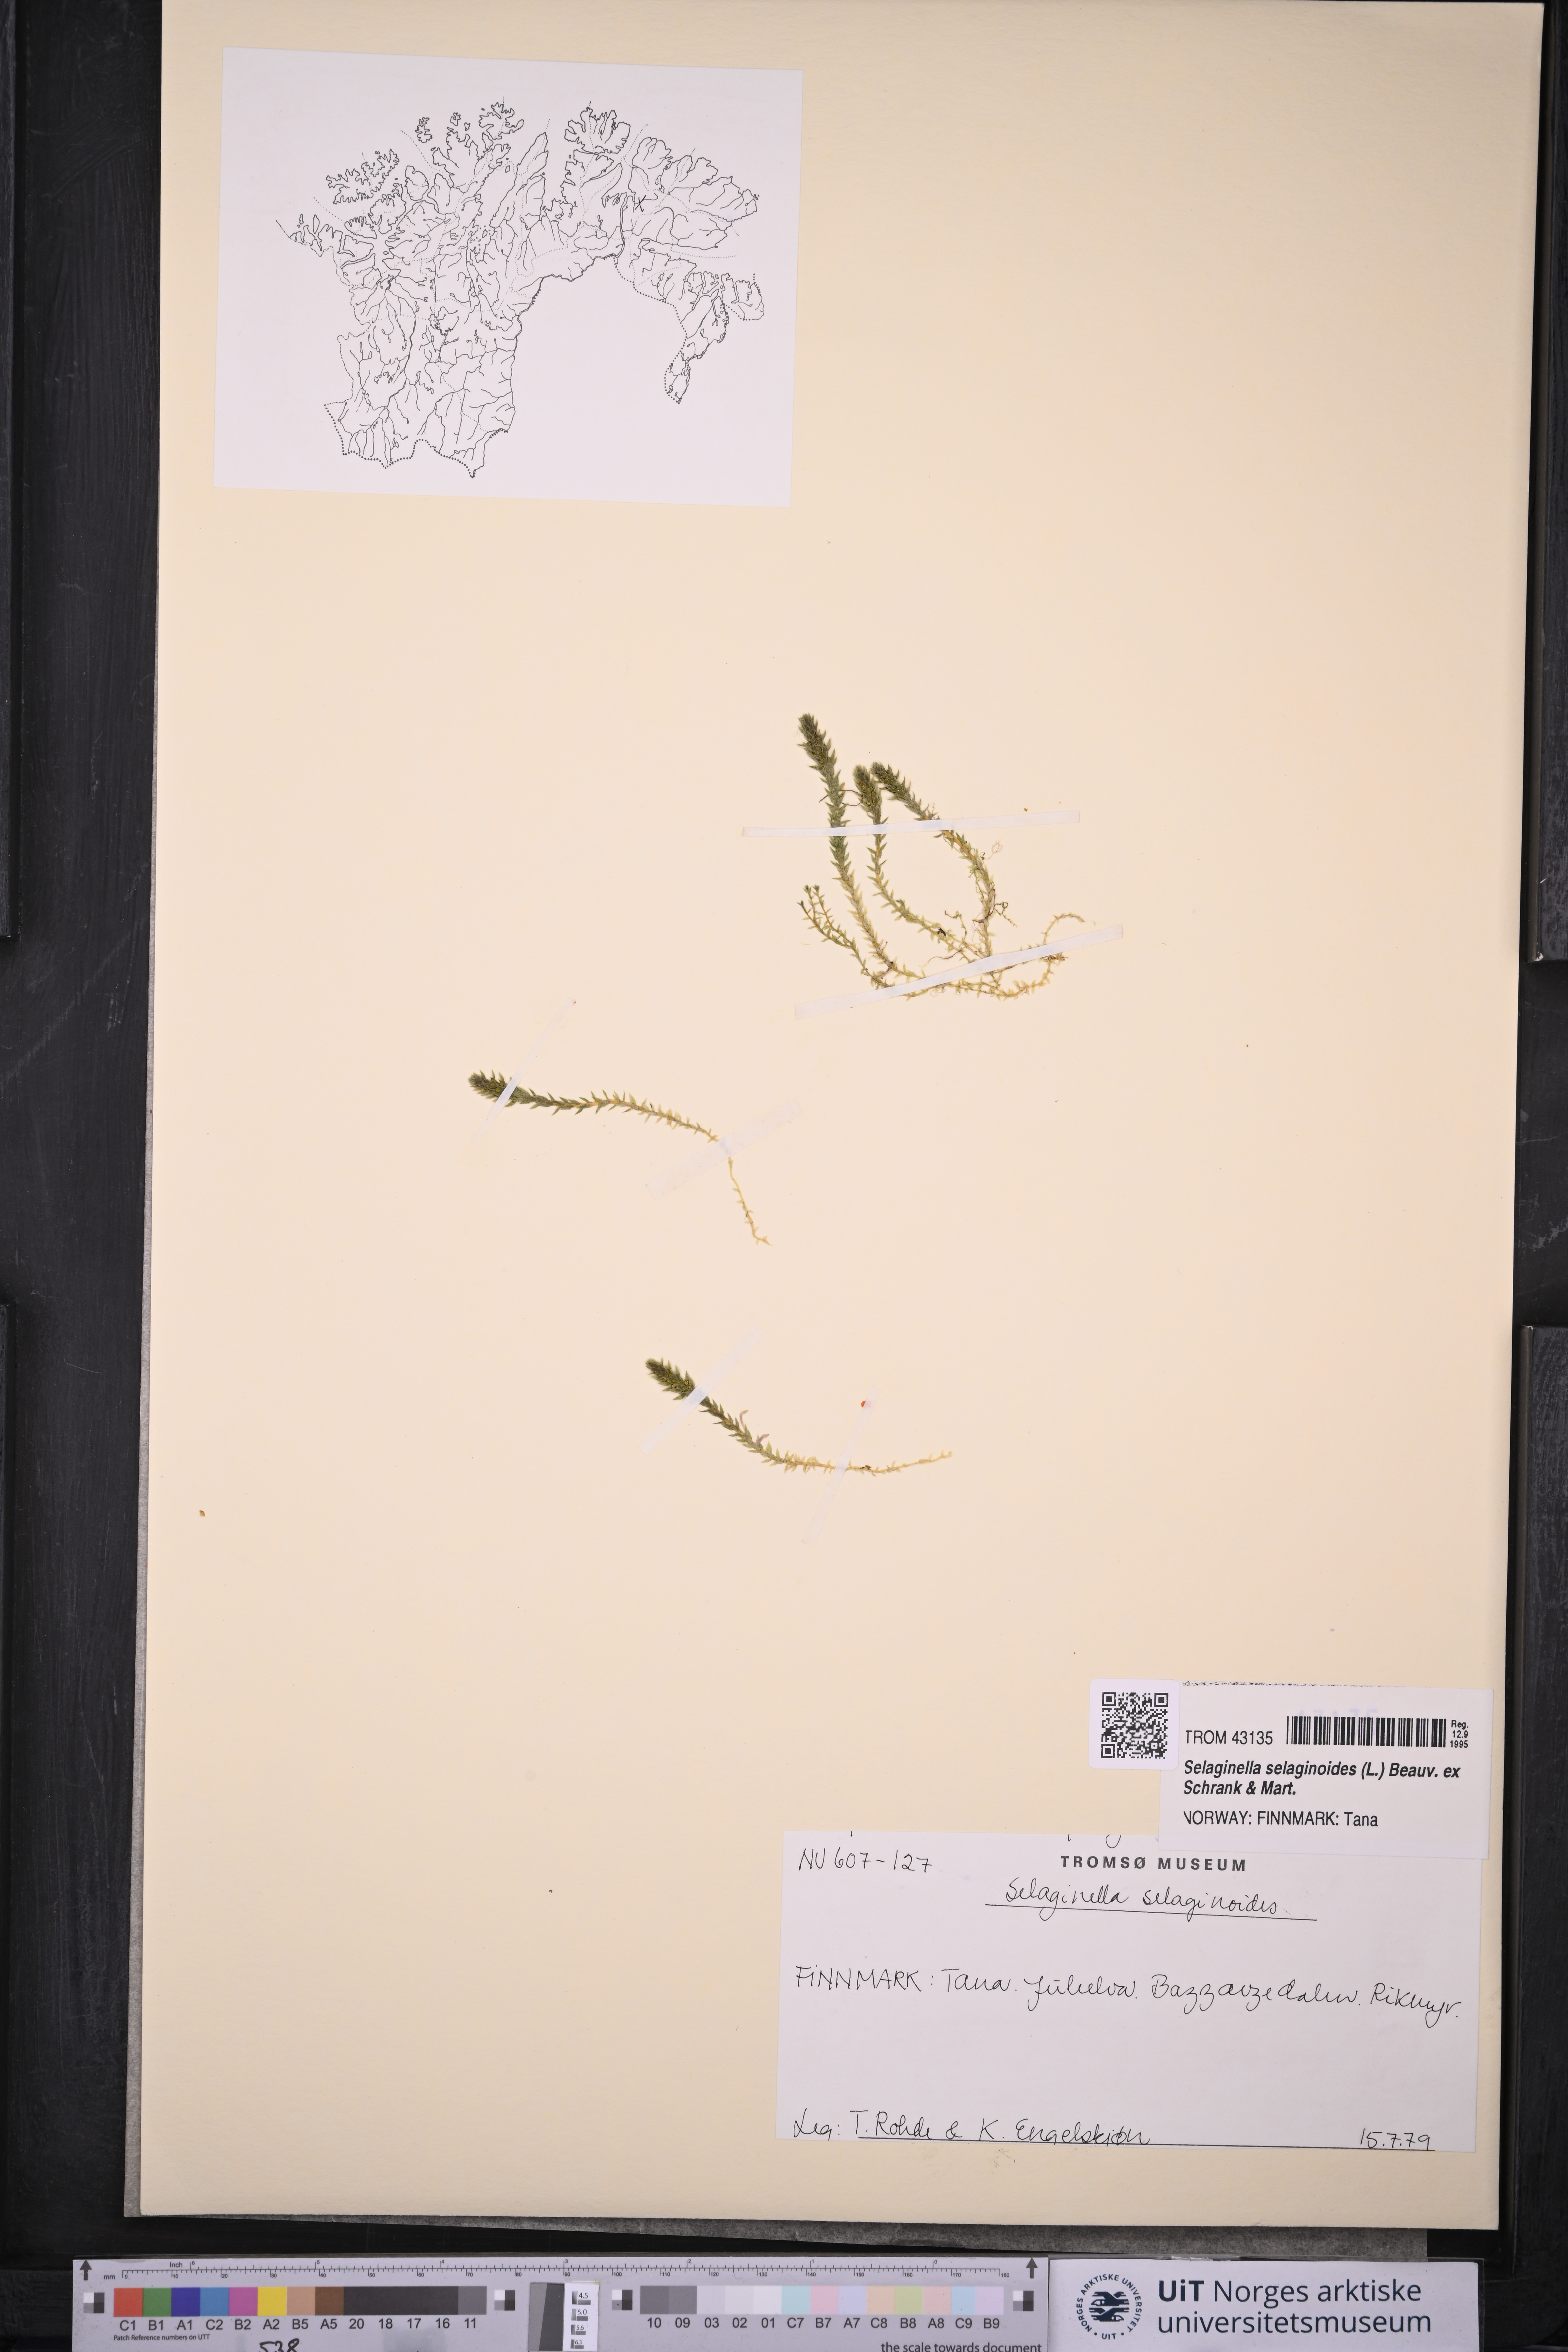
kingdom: Plantae
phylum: Tracheophyta
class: Lycopodiopsida
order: Selaginellales
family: Selaginellaceae
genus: Selaginella
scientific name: Selaginella selaginoides
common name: Prickly mountain-moss
